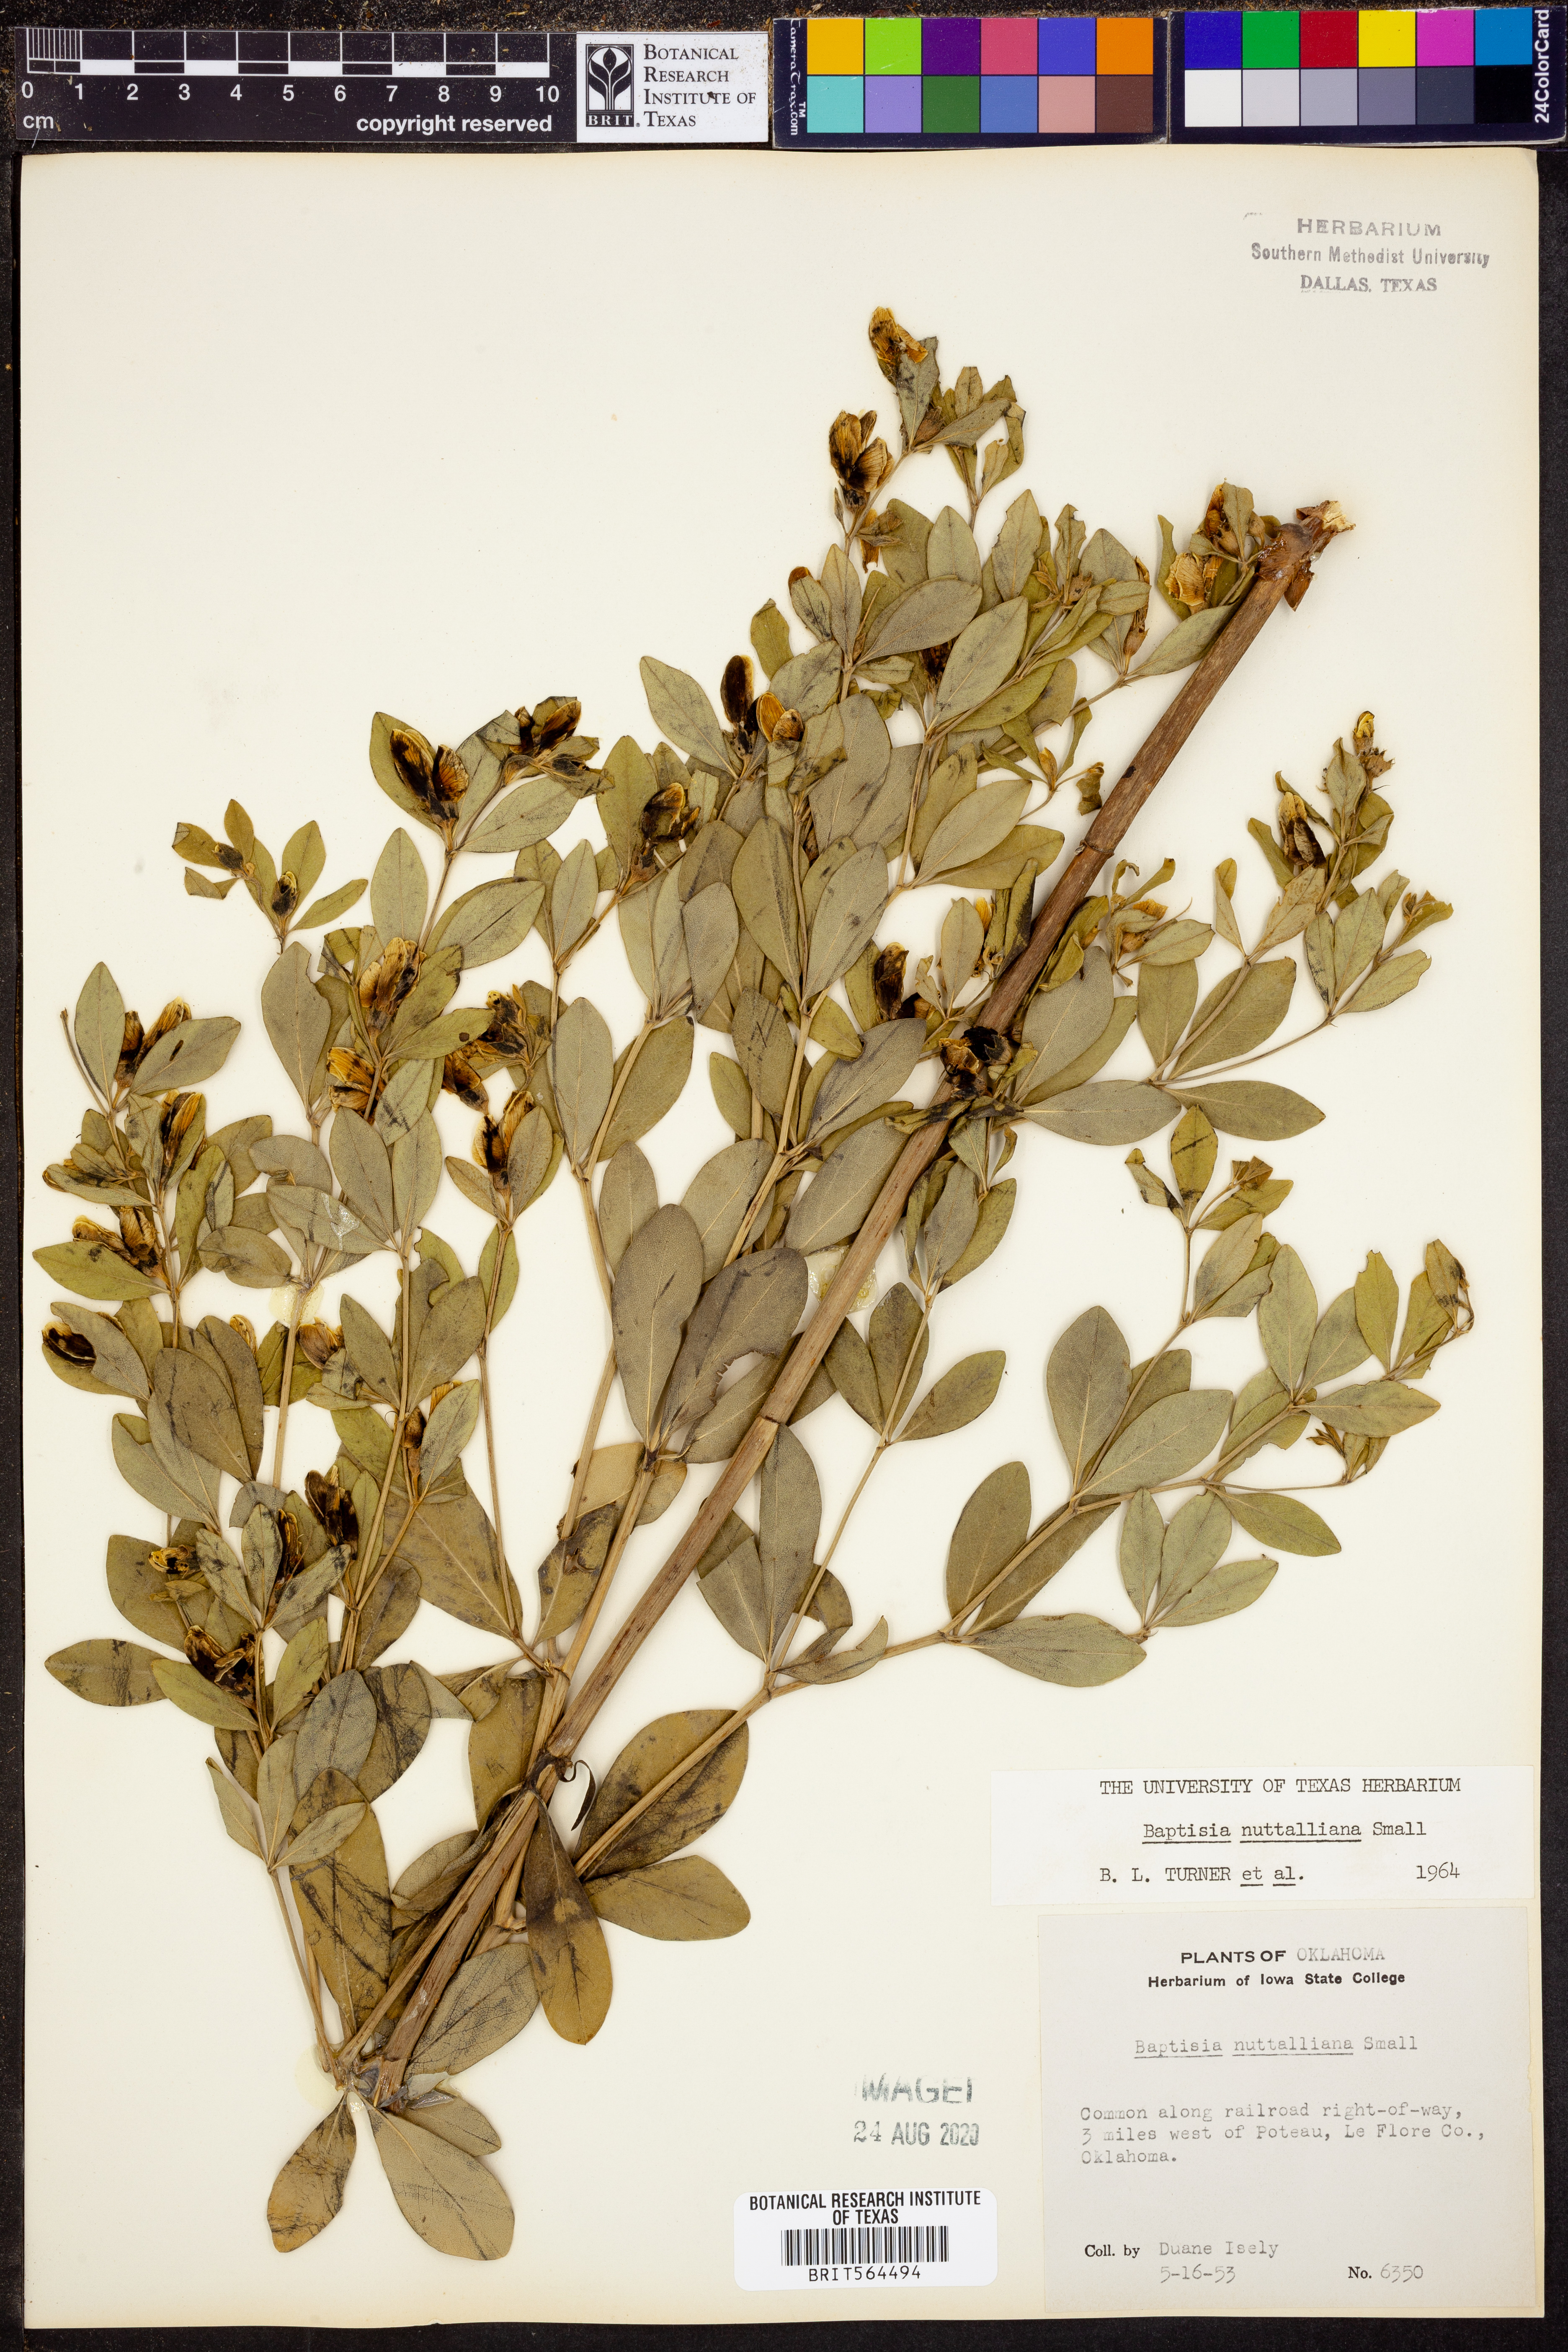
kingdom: Plantae
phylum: Tracheophyta
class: Magnoliopsida
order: Fabales
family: Fabaceae
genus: Baptisia
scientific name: Baptisia nuttalliana
